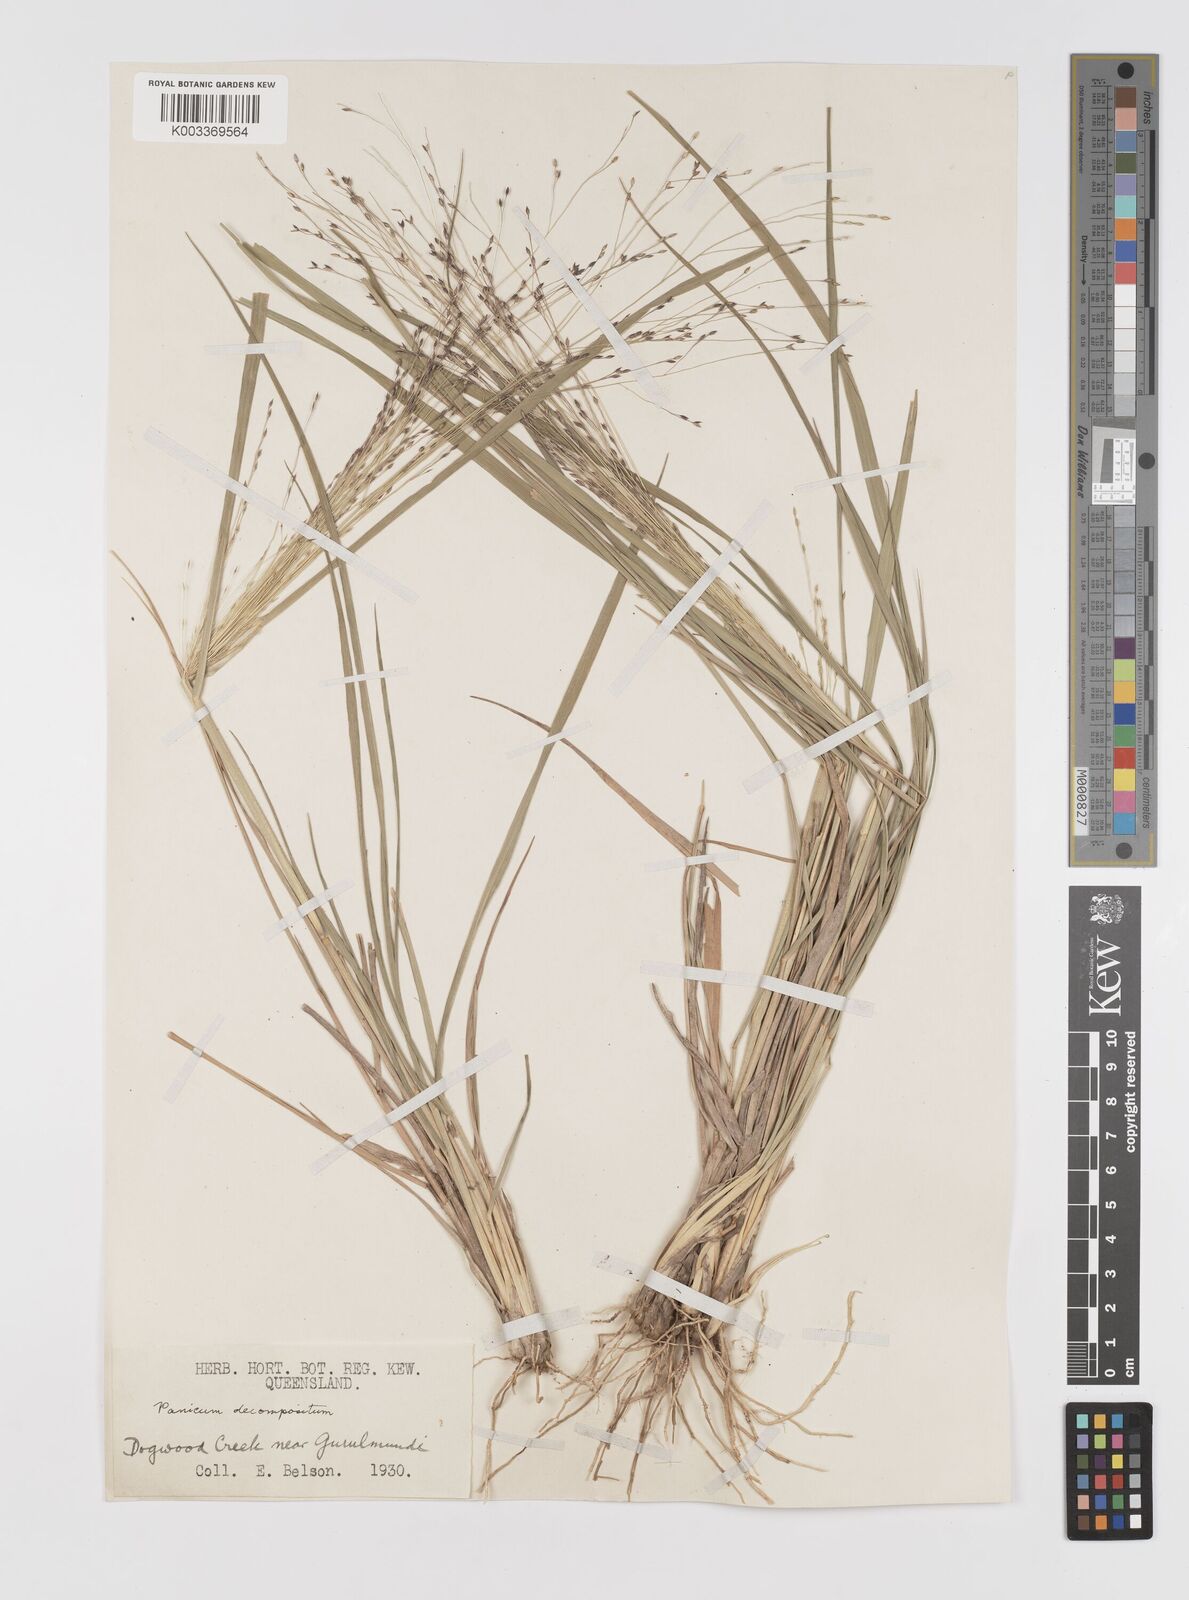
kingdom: Plantae
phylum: Tracheophyta
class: Liliopsida
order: Poales
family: Poaceae
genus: Panicum
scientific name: Panicum decompositum
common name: Australian millet
